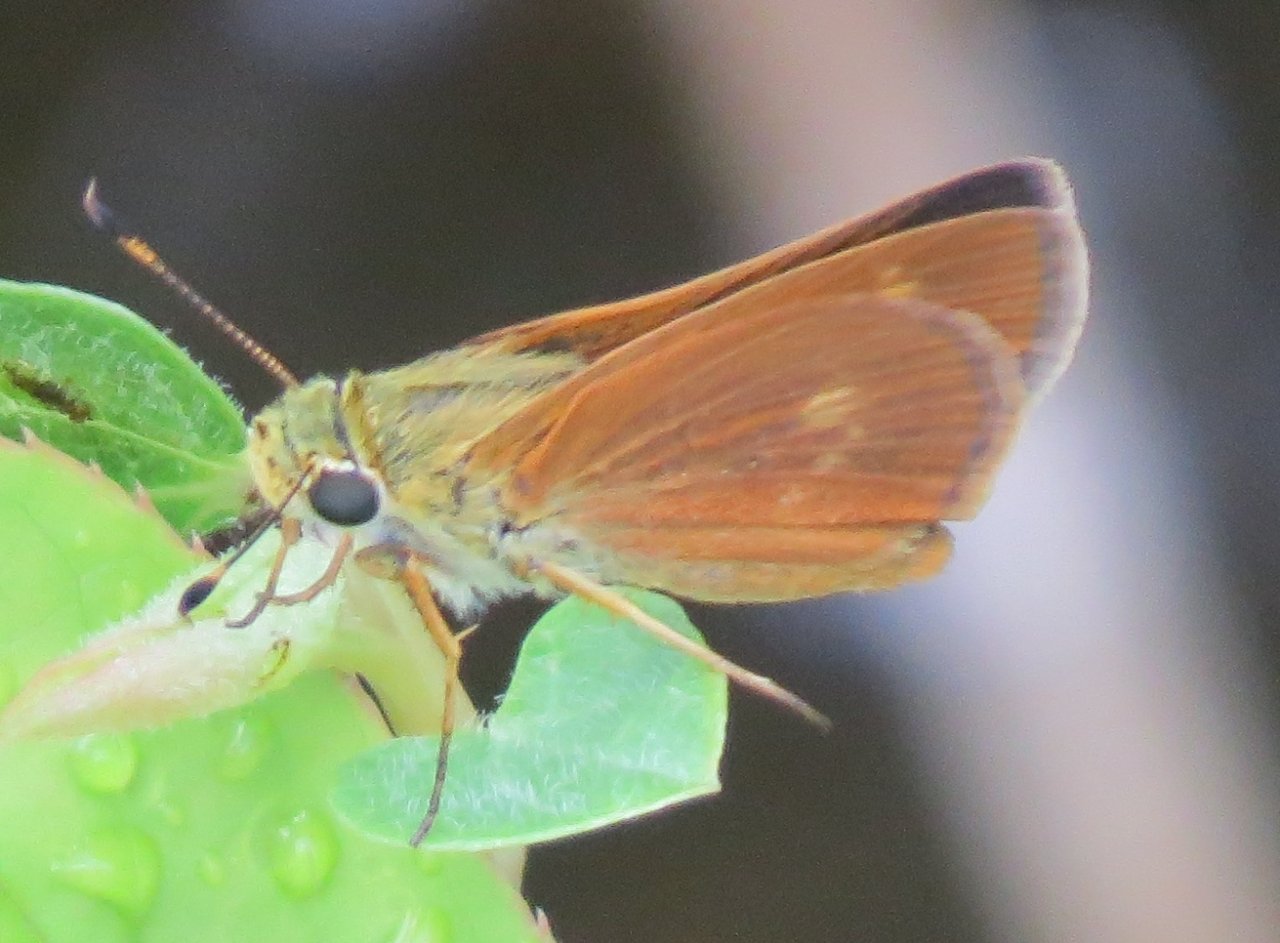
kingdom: Animalia
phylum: Arthropoda
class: Insecta
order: Lepidoptera
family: Hesperiidae
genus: Wallengrenia
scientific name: Wallengrenia otho
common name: Southern Broken-Dash
